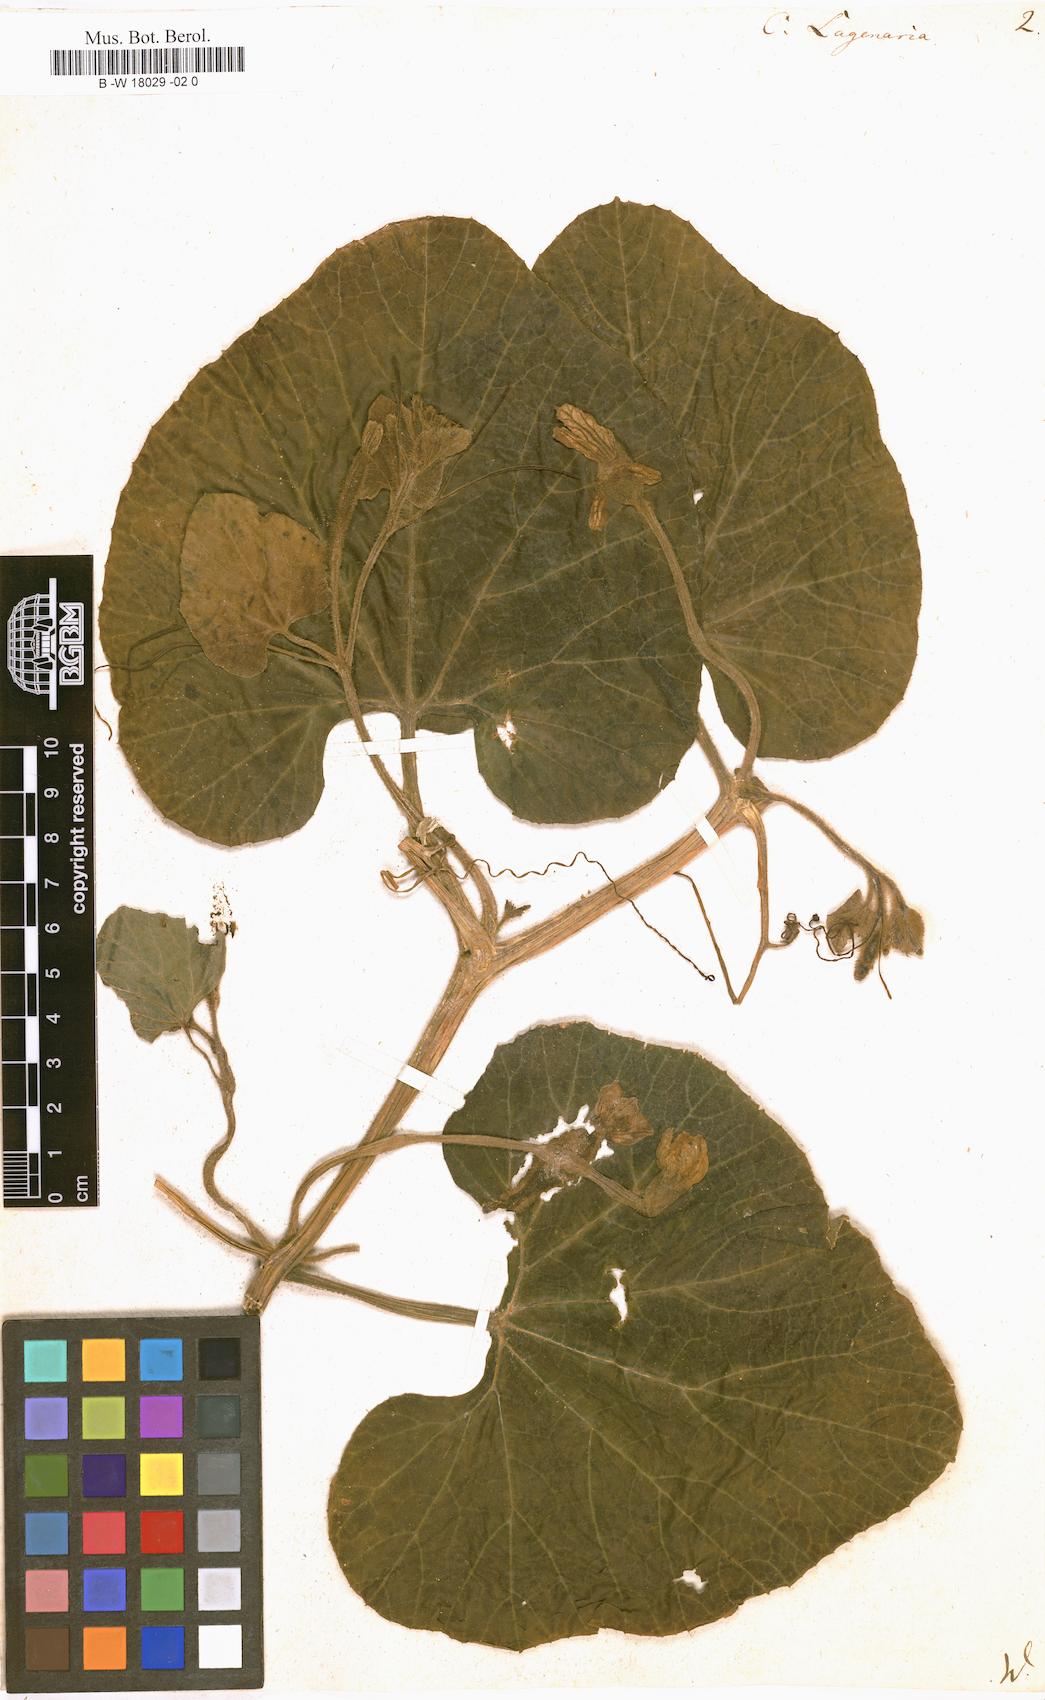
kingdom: Plantae
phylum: Tracheophyta
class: Magnoliopsida
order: Cucurbitales
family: Cucurbitaceae
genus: Lagenaria
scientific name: Lagenaria siceraria
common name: Bottle gourd
